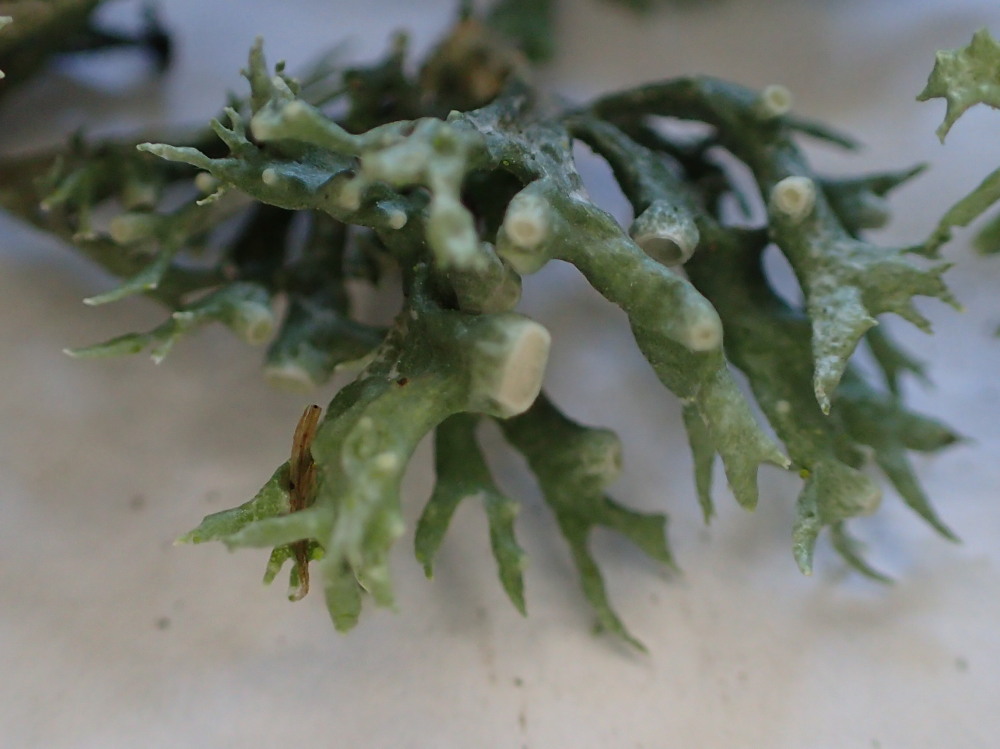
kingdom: Fungi
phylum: Ascomycota
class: Lecanoromycetes
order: Lecanorales
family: Ramalinaceae
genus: Ramalina
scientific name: Ramalina fastigiata
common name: tue-grenlav
